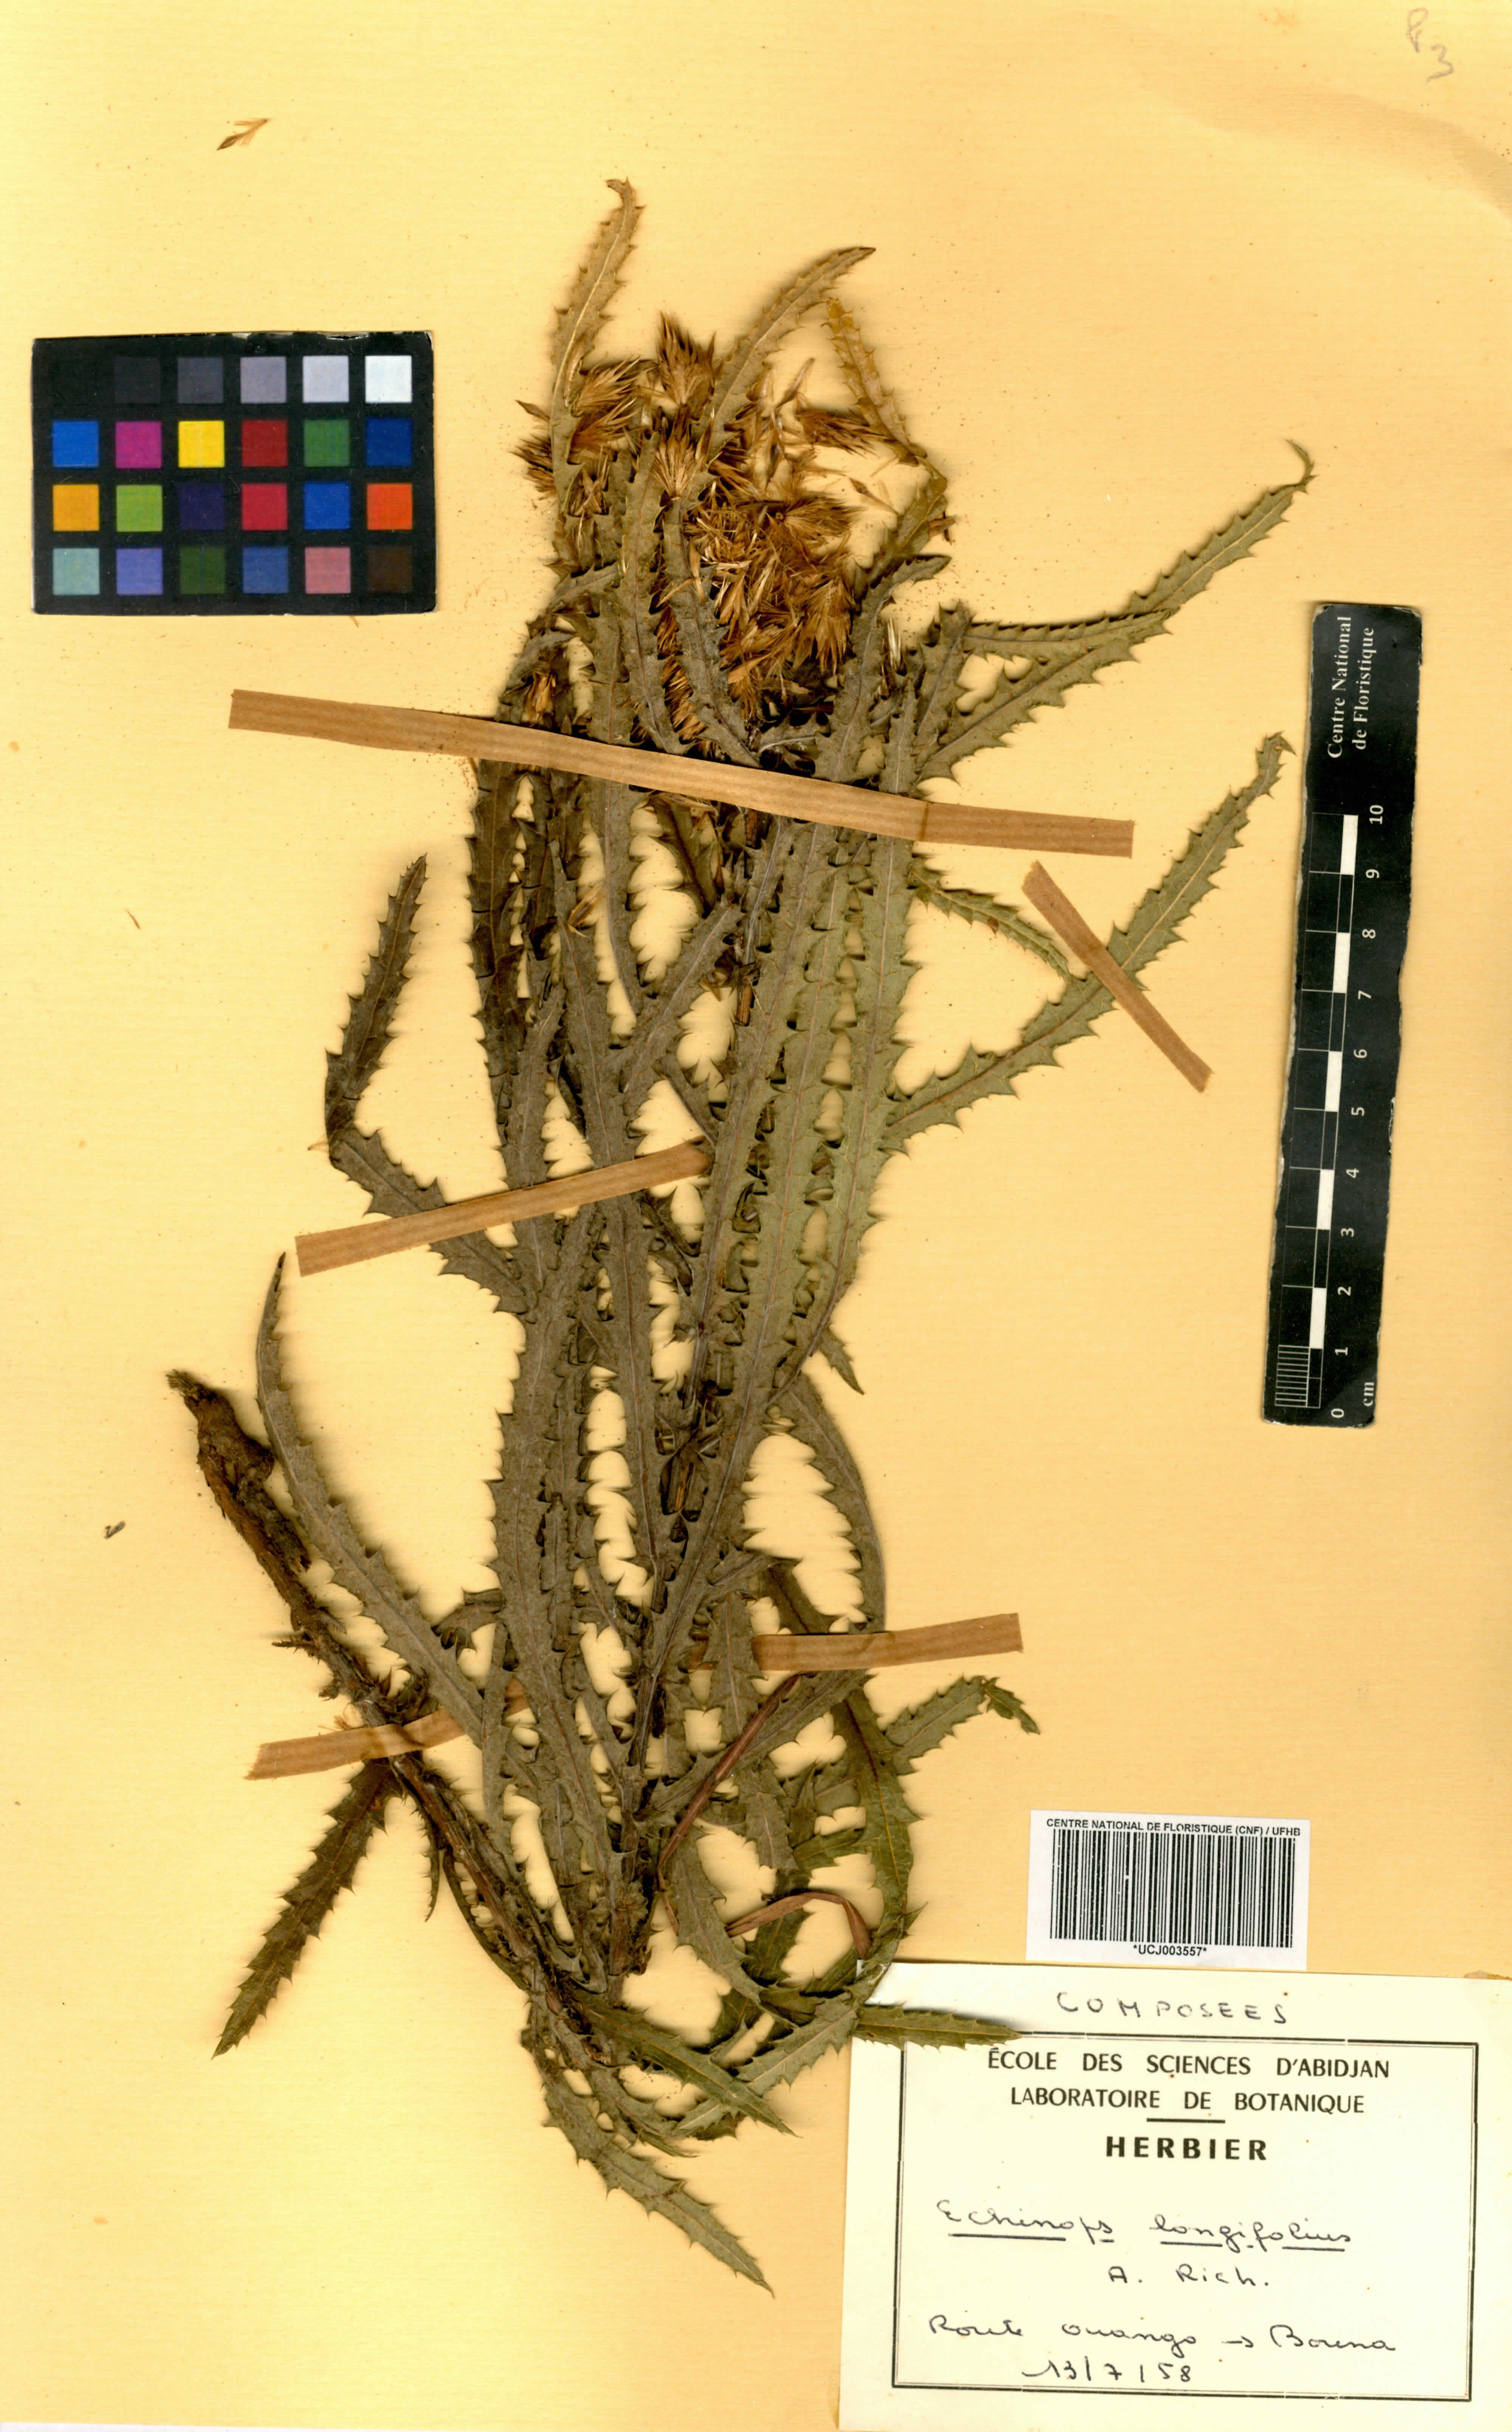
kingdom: Plantae
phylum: Tracheophyta
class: Magnoliopsida
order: Asterales
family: Asteraceae
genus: Echinops
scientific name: Echinops longifolius
